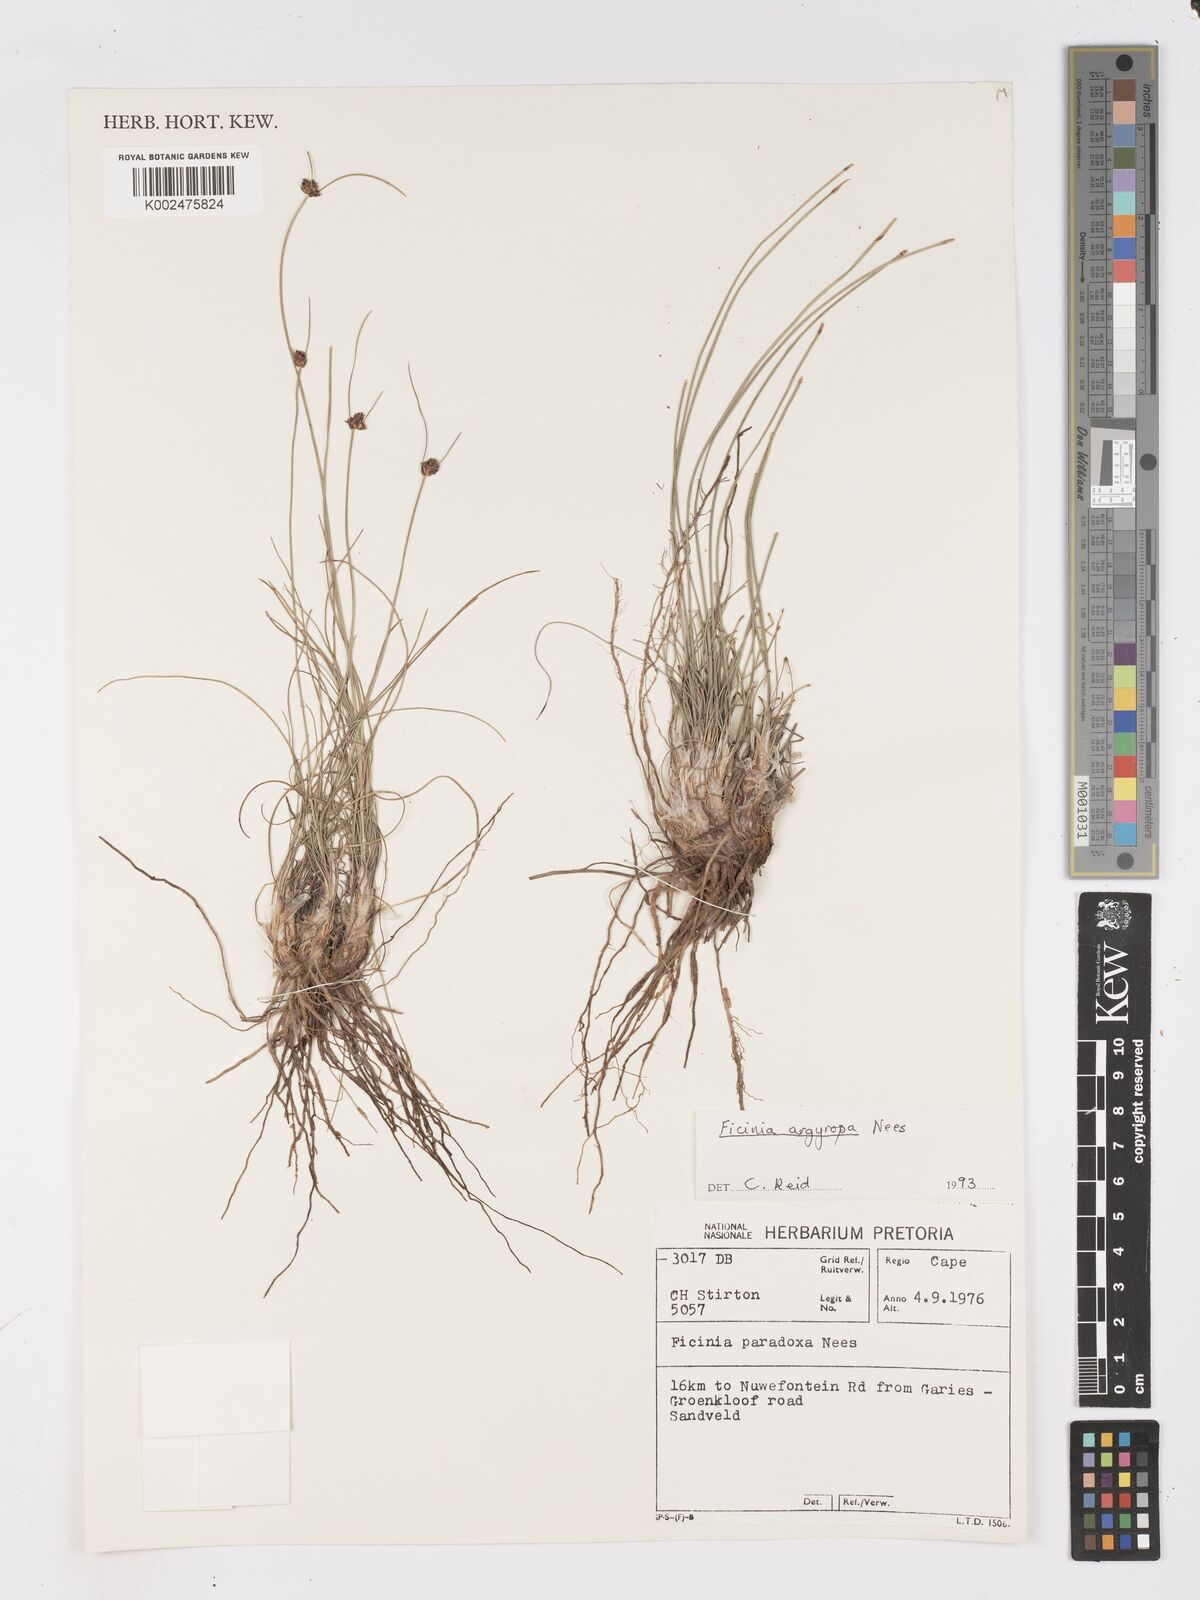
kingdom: Plantae
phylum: Tracheophyta
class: Liliopsida
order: Poales
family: Cyperaceae
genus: Ficinia
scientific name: Ficinia argyropus
